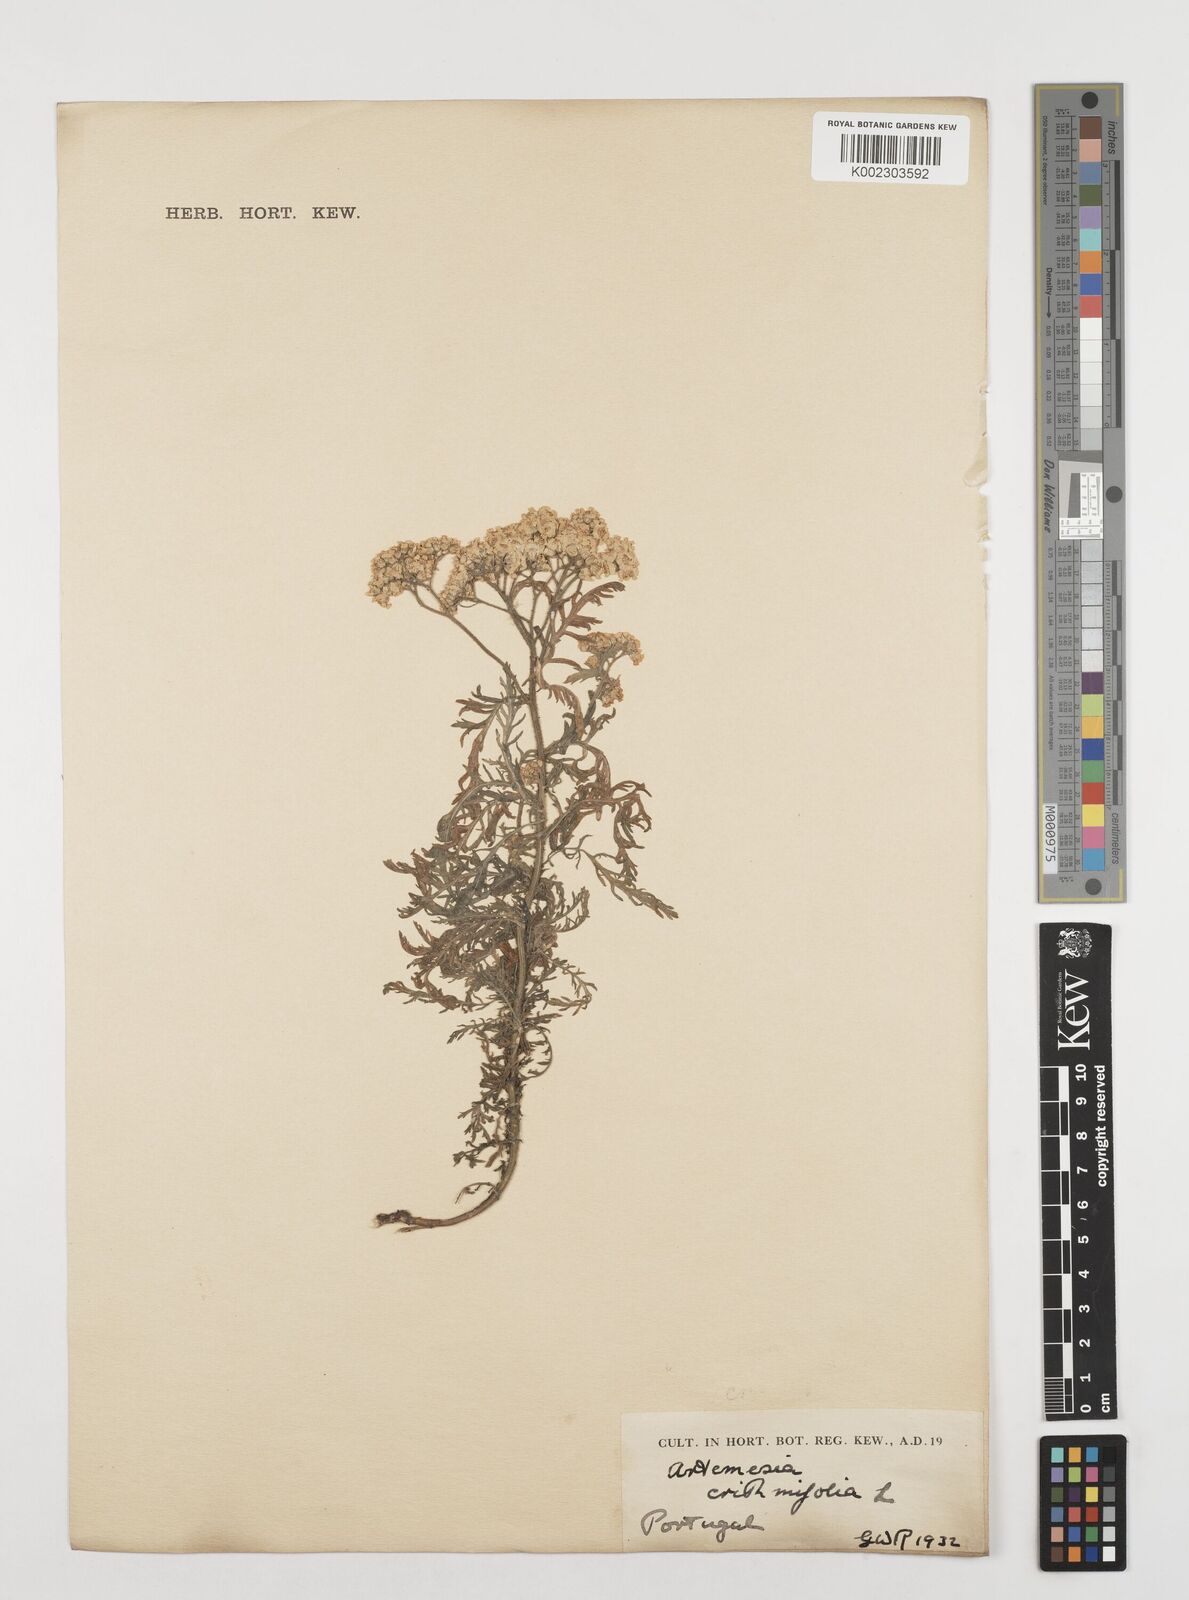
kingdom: Plantae
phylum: Tracheophyta
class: Magnoliopsida
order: Asterales
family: Asteraceae
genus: Artemisia
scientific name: Artemisia crithmifolia
